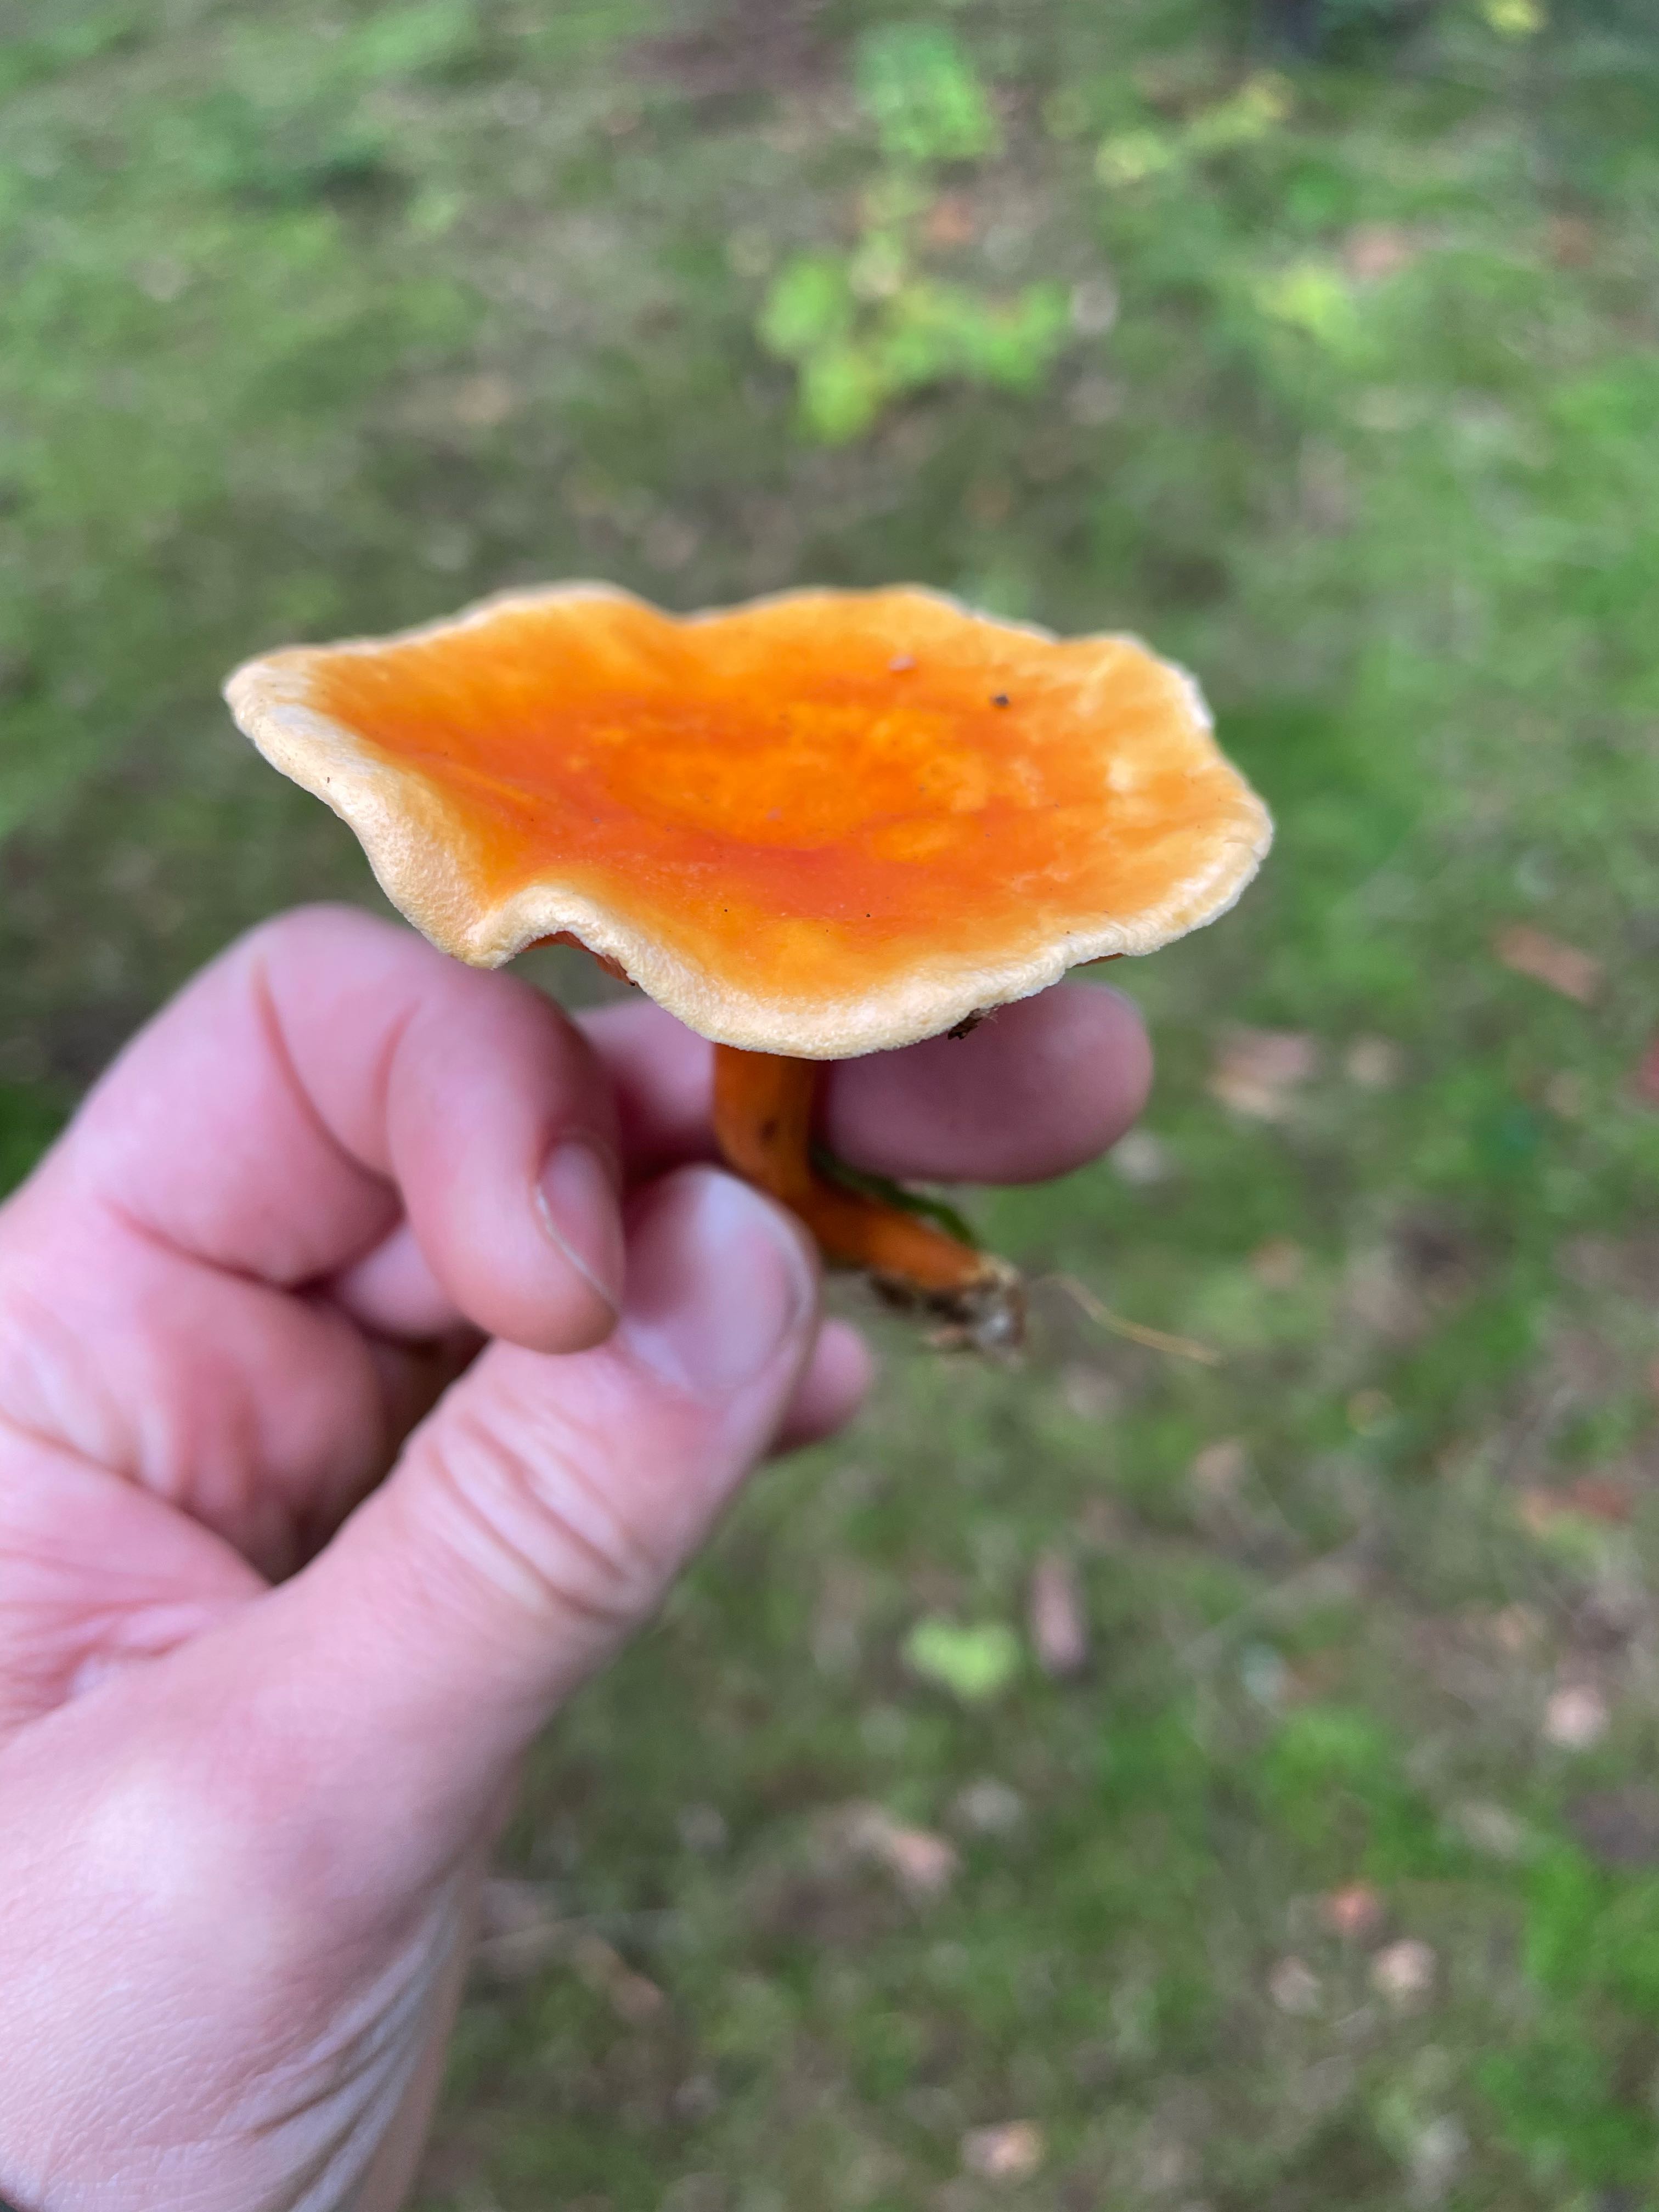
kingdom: Fungi
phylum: Basidiomycota
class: Agaricomycetes
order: Boletales
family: Hygrophoropsidaceae
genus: Hygrophoropsis
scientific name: Hygrophoropsis aurantiaca
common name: almindelig orangekantarel
